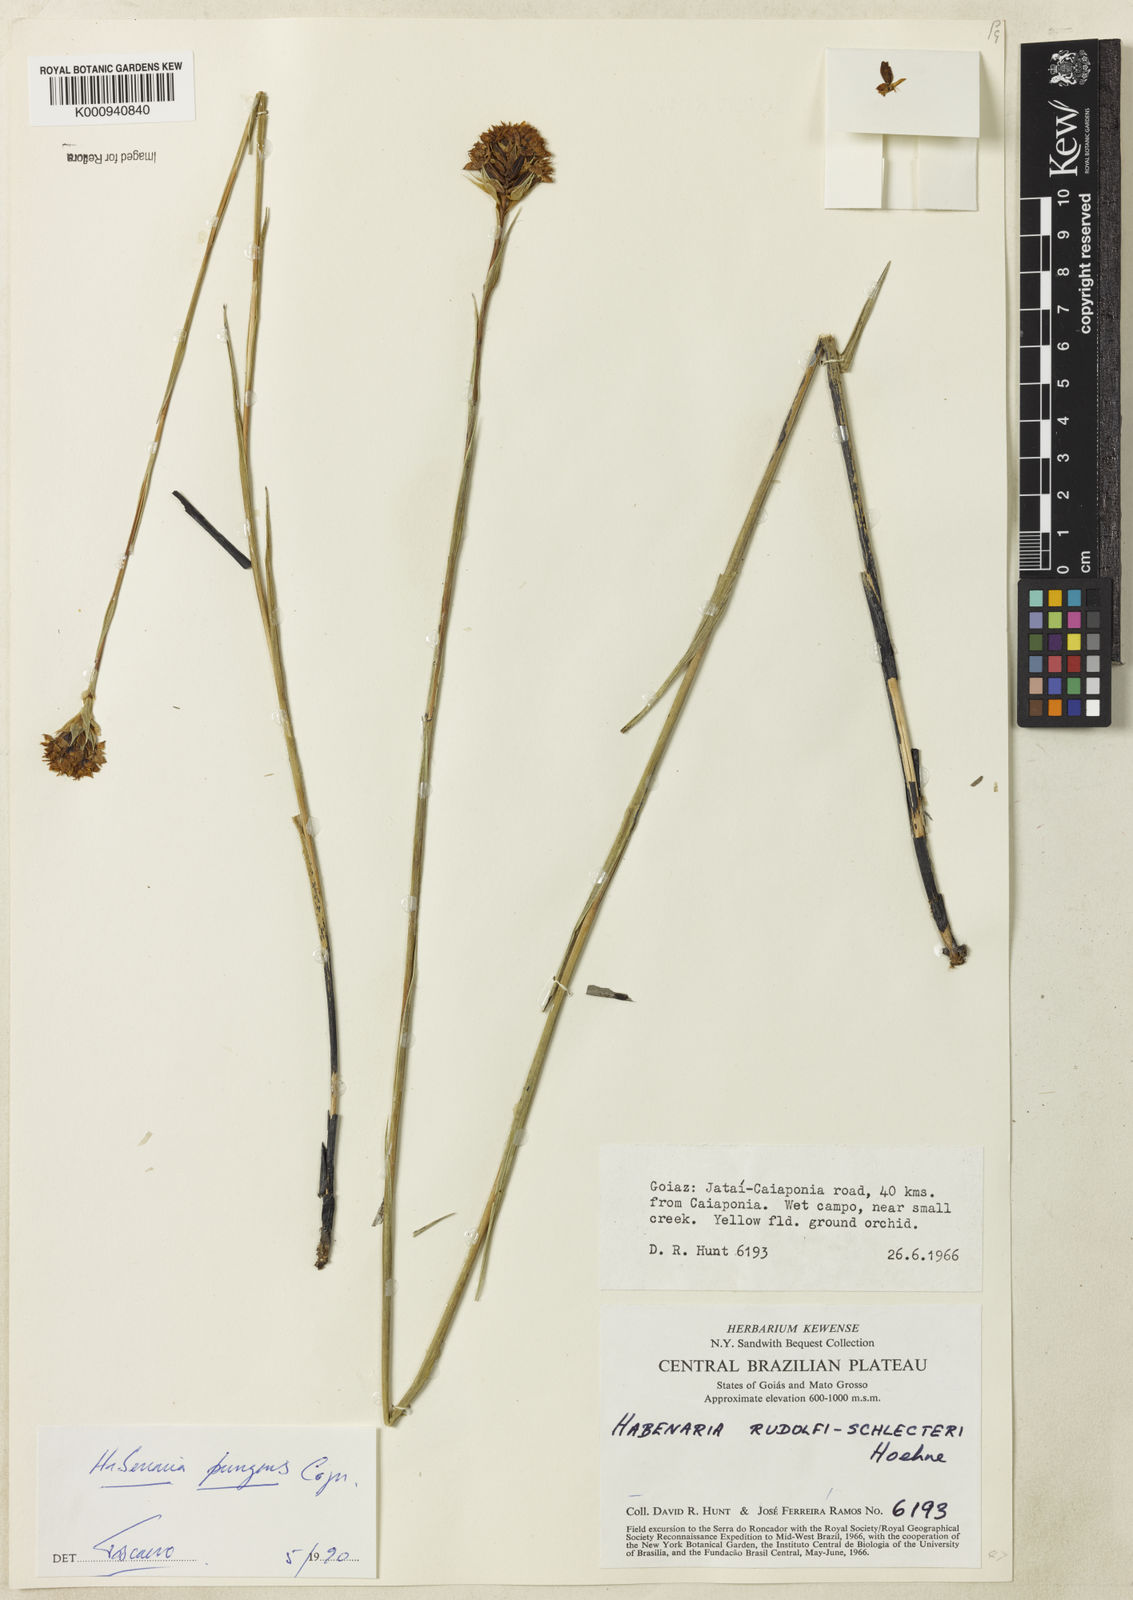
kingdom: Plantae
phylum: Tracheophyta
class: Liliopsida
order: Asparagales
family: Orchidaceae
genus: Habenaria
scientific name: Habenaria
